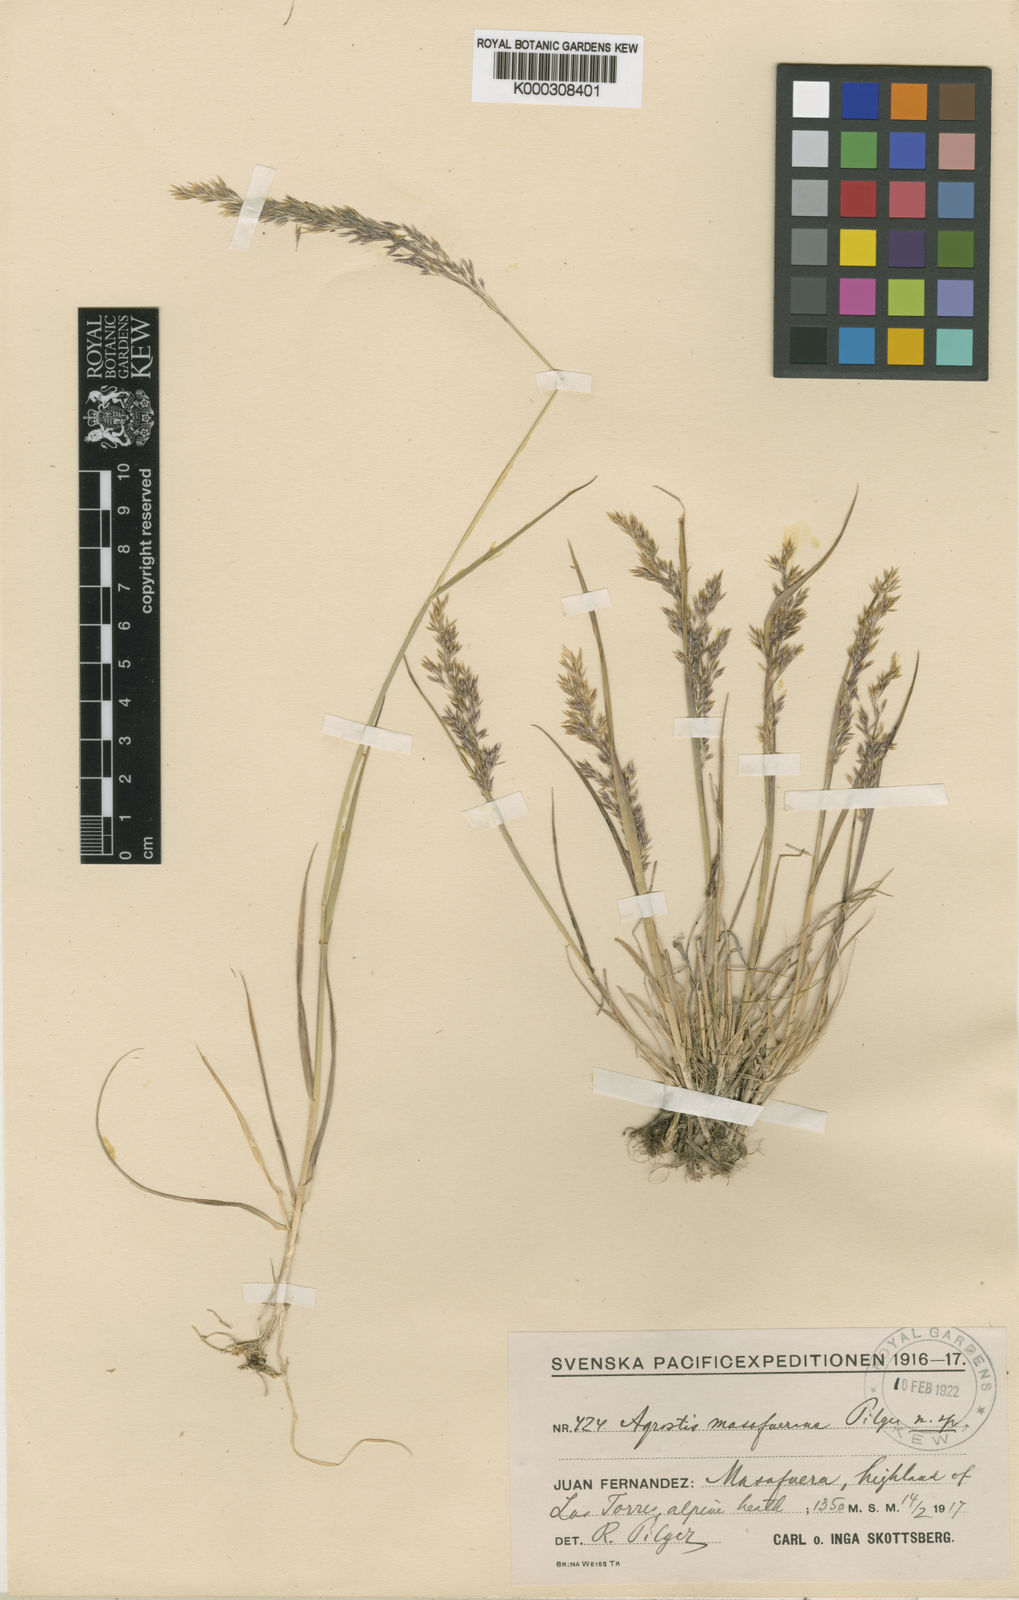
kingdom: Plantae
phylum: Tracheophyta
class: Liliopsida
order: Poales
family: Poaceae
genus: Agrostis
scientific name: Agrostis masafuerana
